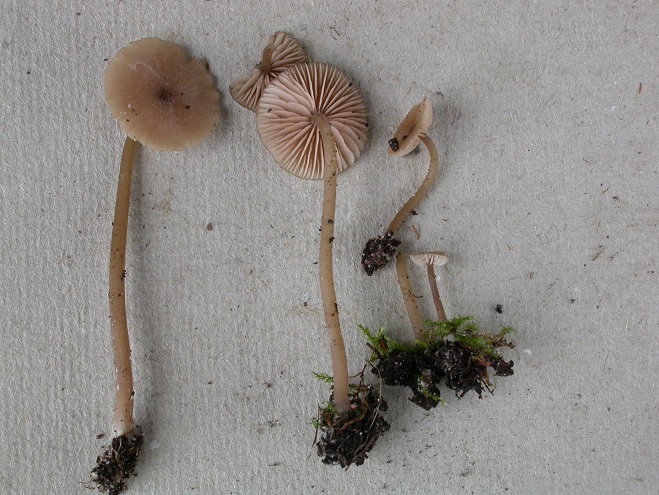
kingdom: Fungi
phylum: Basidiomycota
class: Agaricomycetes
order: Agaricales
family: Entolomataceae
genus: Entoloma
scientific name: Entoloma minutum
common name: liden rødblad
